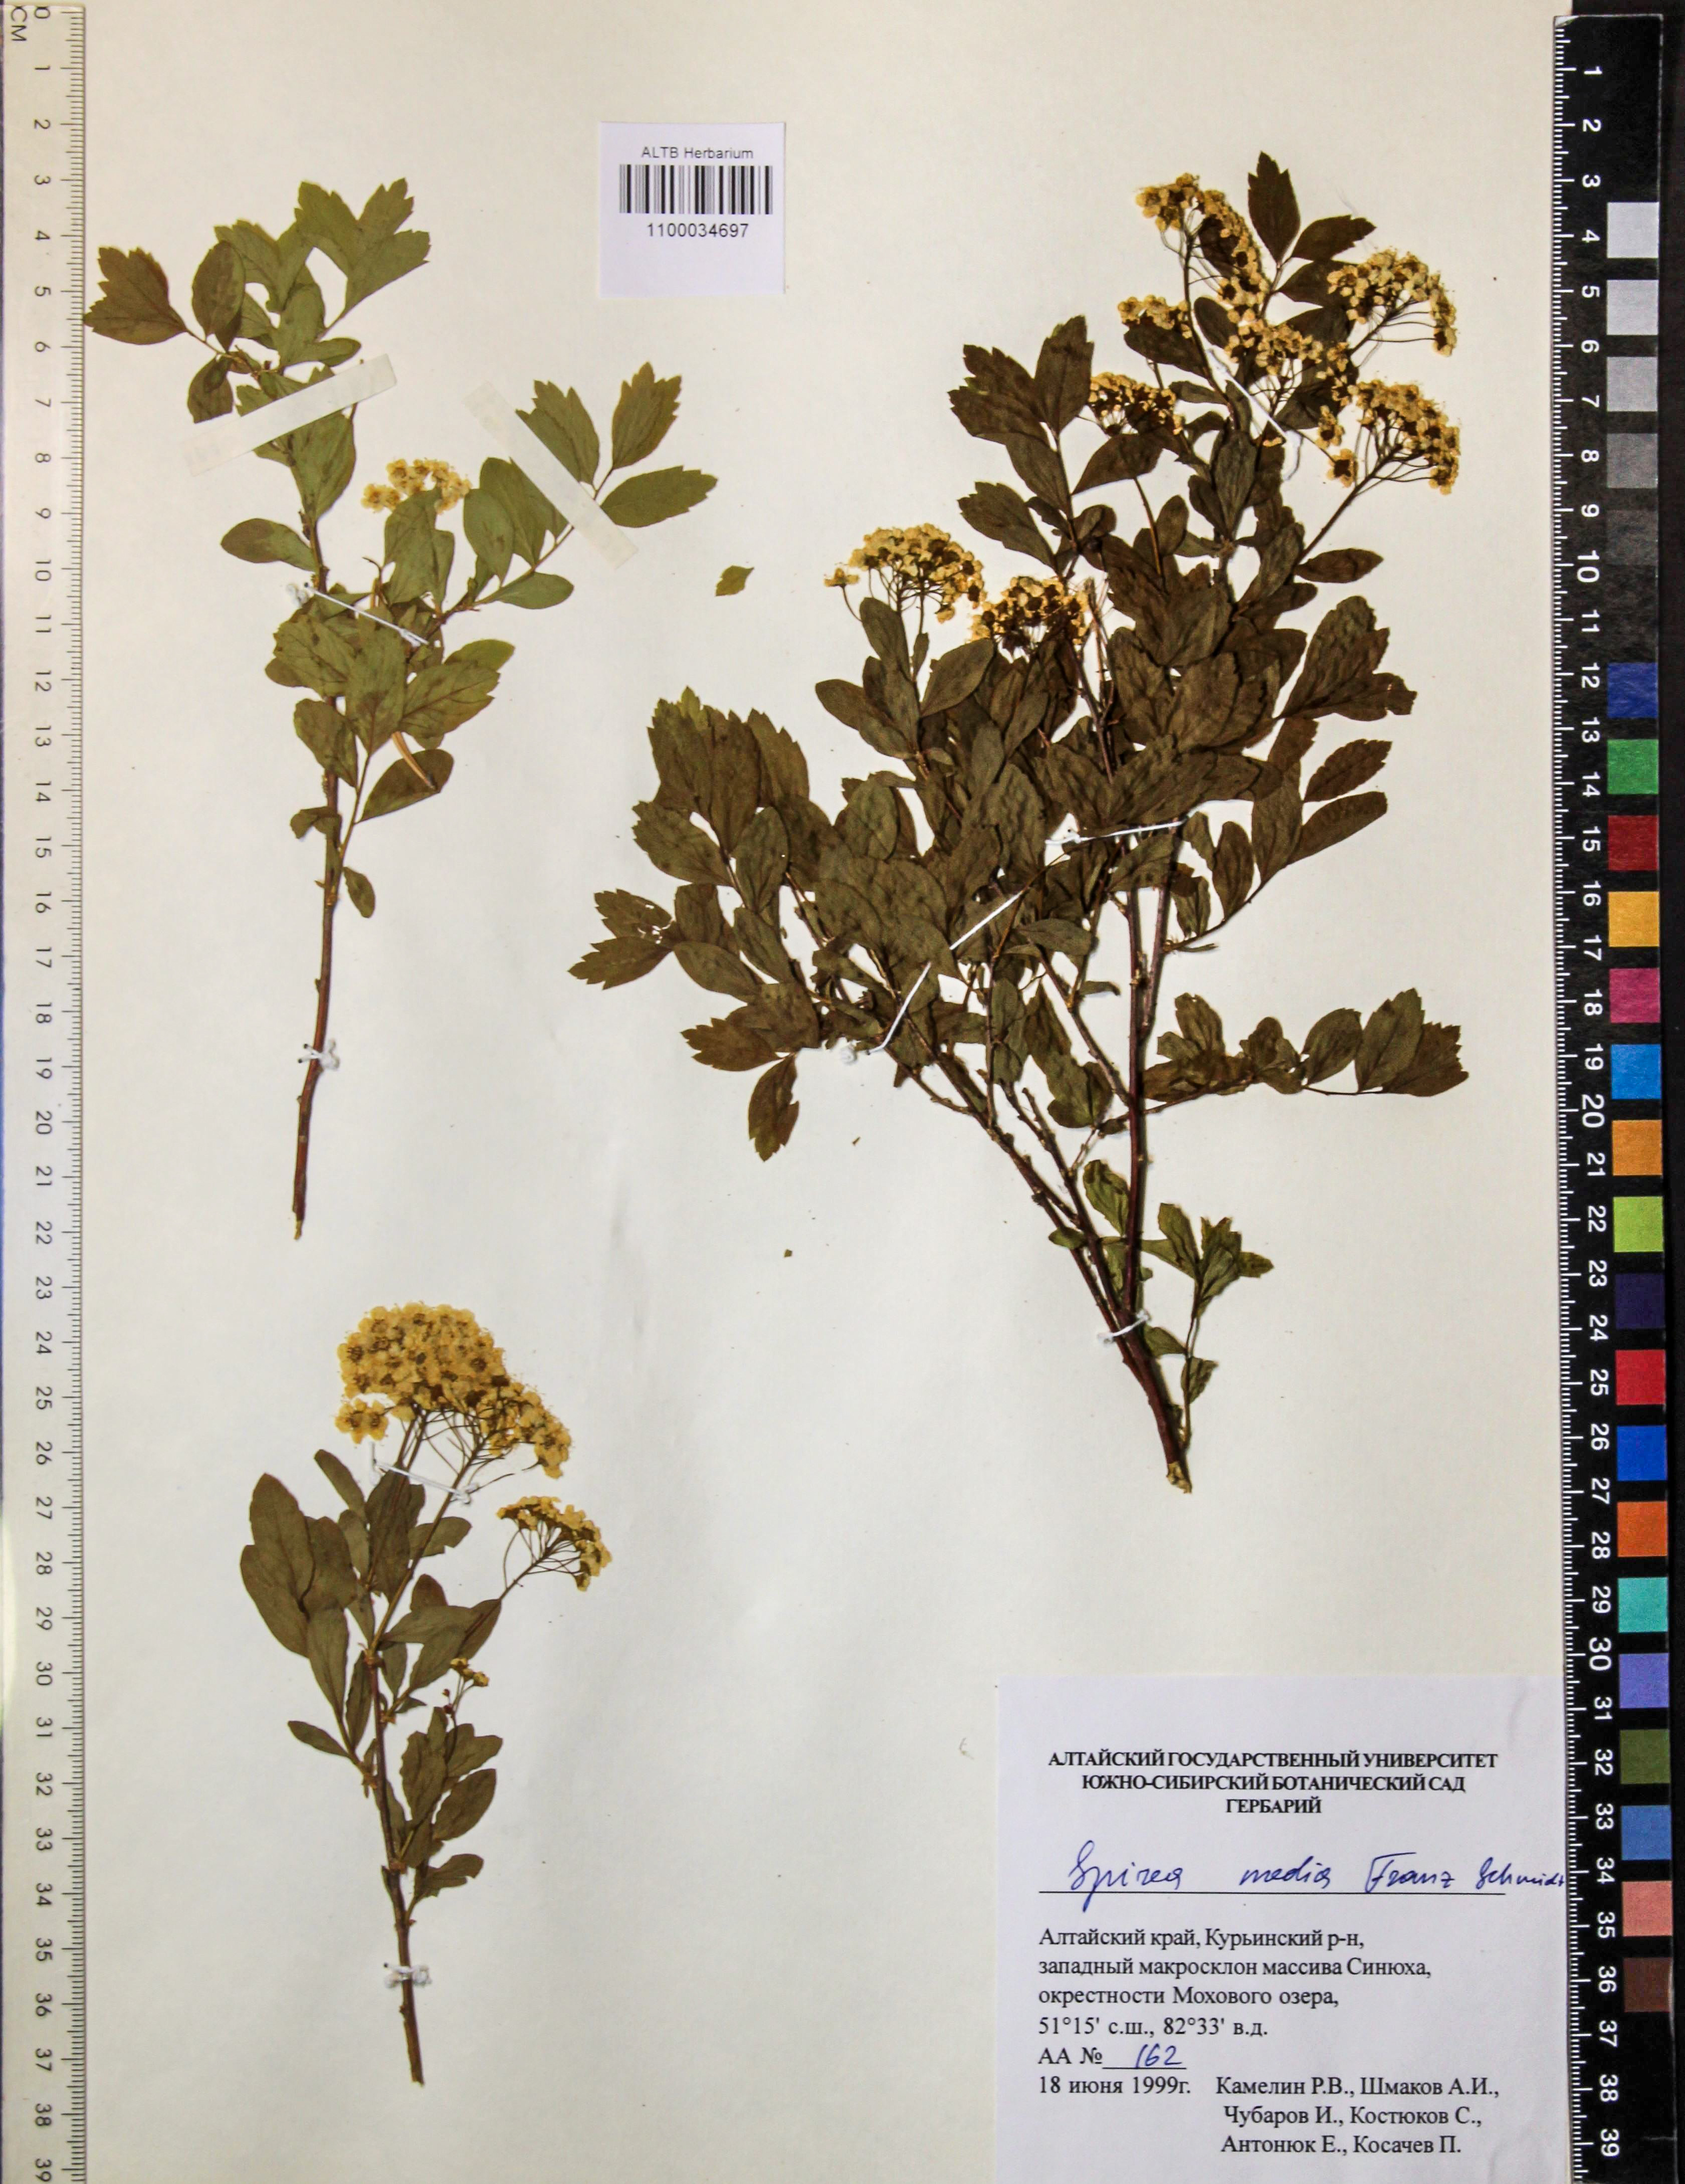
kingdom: Plantae
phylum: Tracheophyta
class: Magnoliopsida
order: Rosales
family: Rosaceae
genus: Spiraea
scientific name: Spiraea media
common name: Russian spiraea
